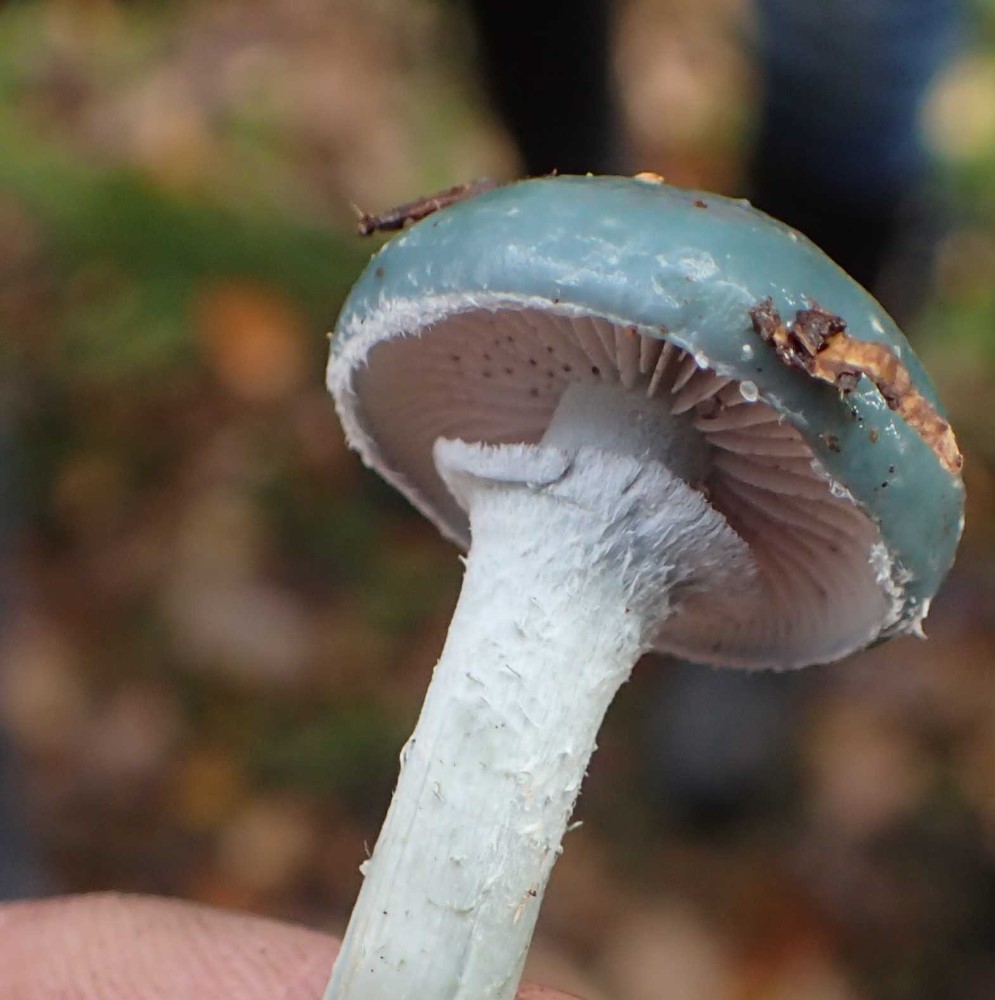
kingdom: Fungi
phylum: Basidiomycota
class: Agaricomycetes
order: Agaricales
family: Strophariaceae
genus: Stropharia
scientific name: Stropharia aeruginosa
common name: spanskgrøn bredblad
